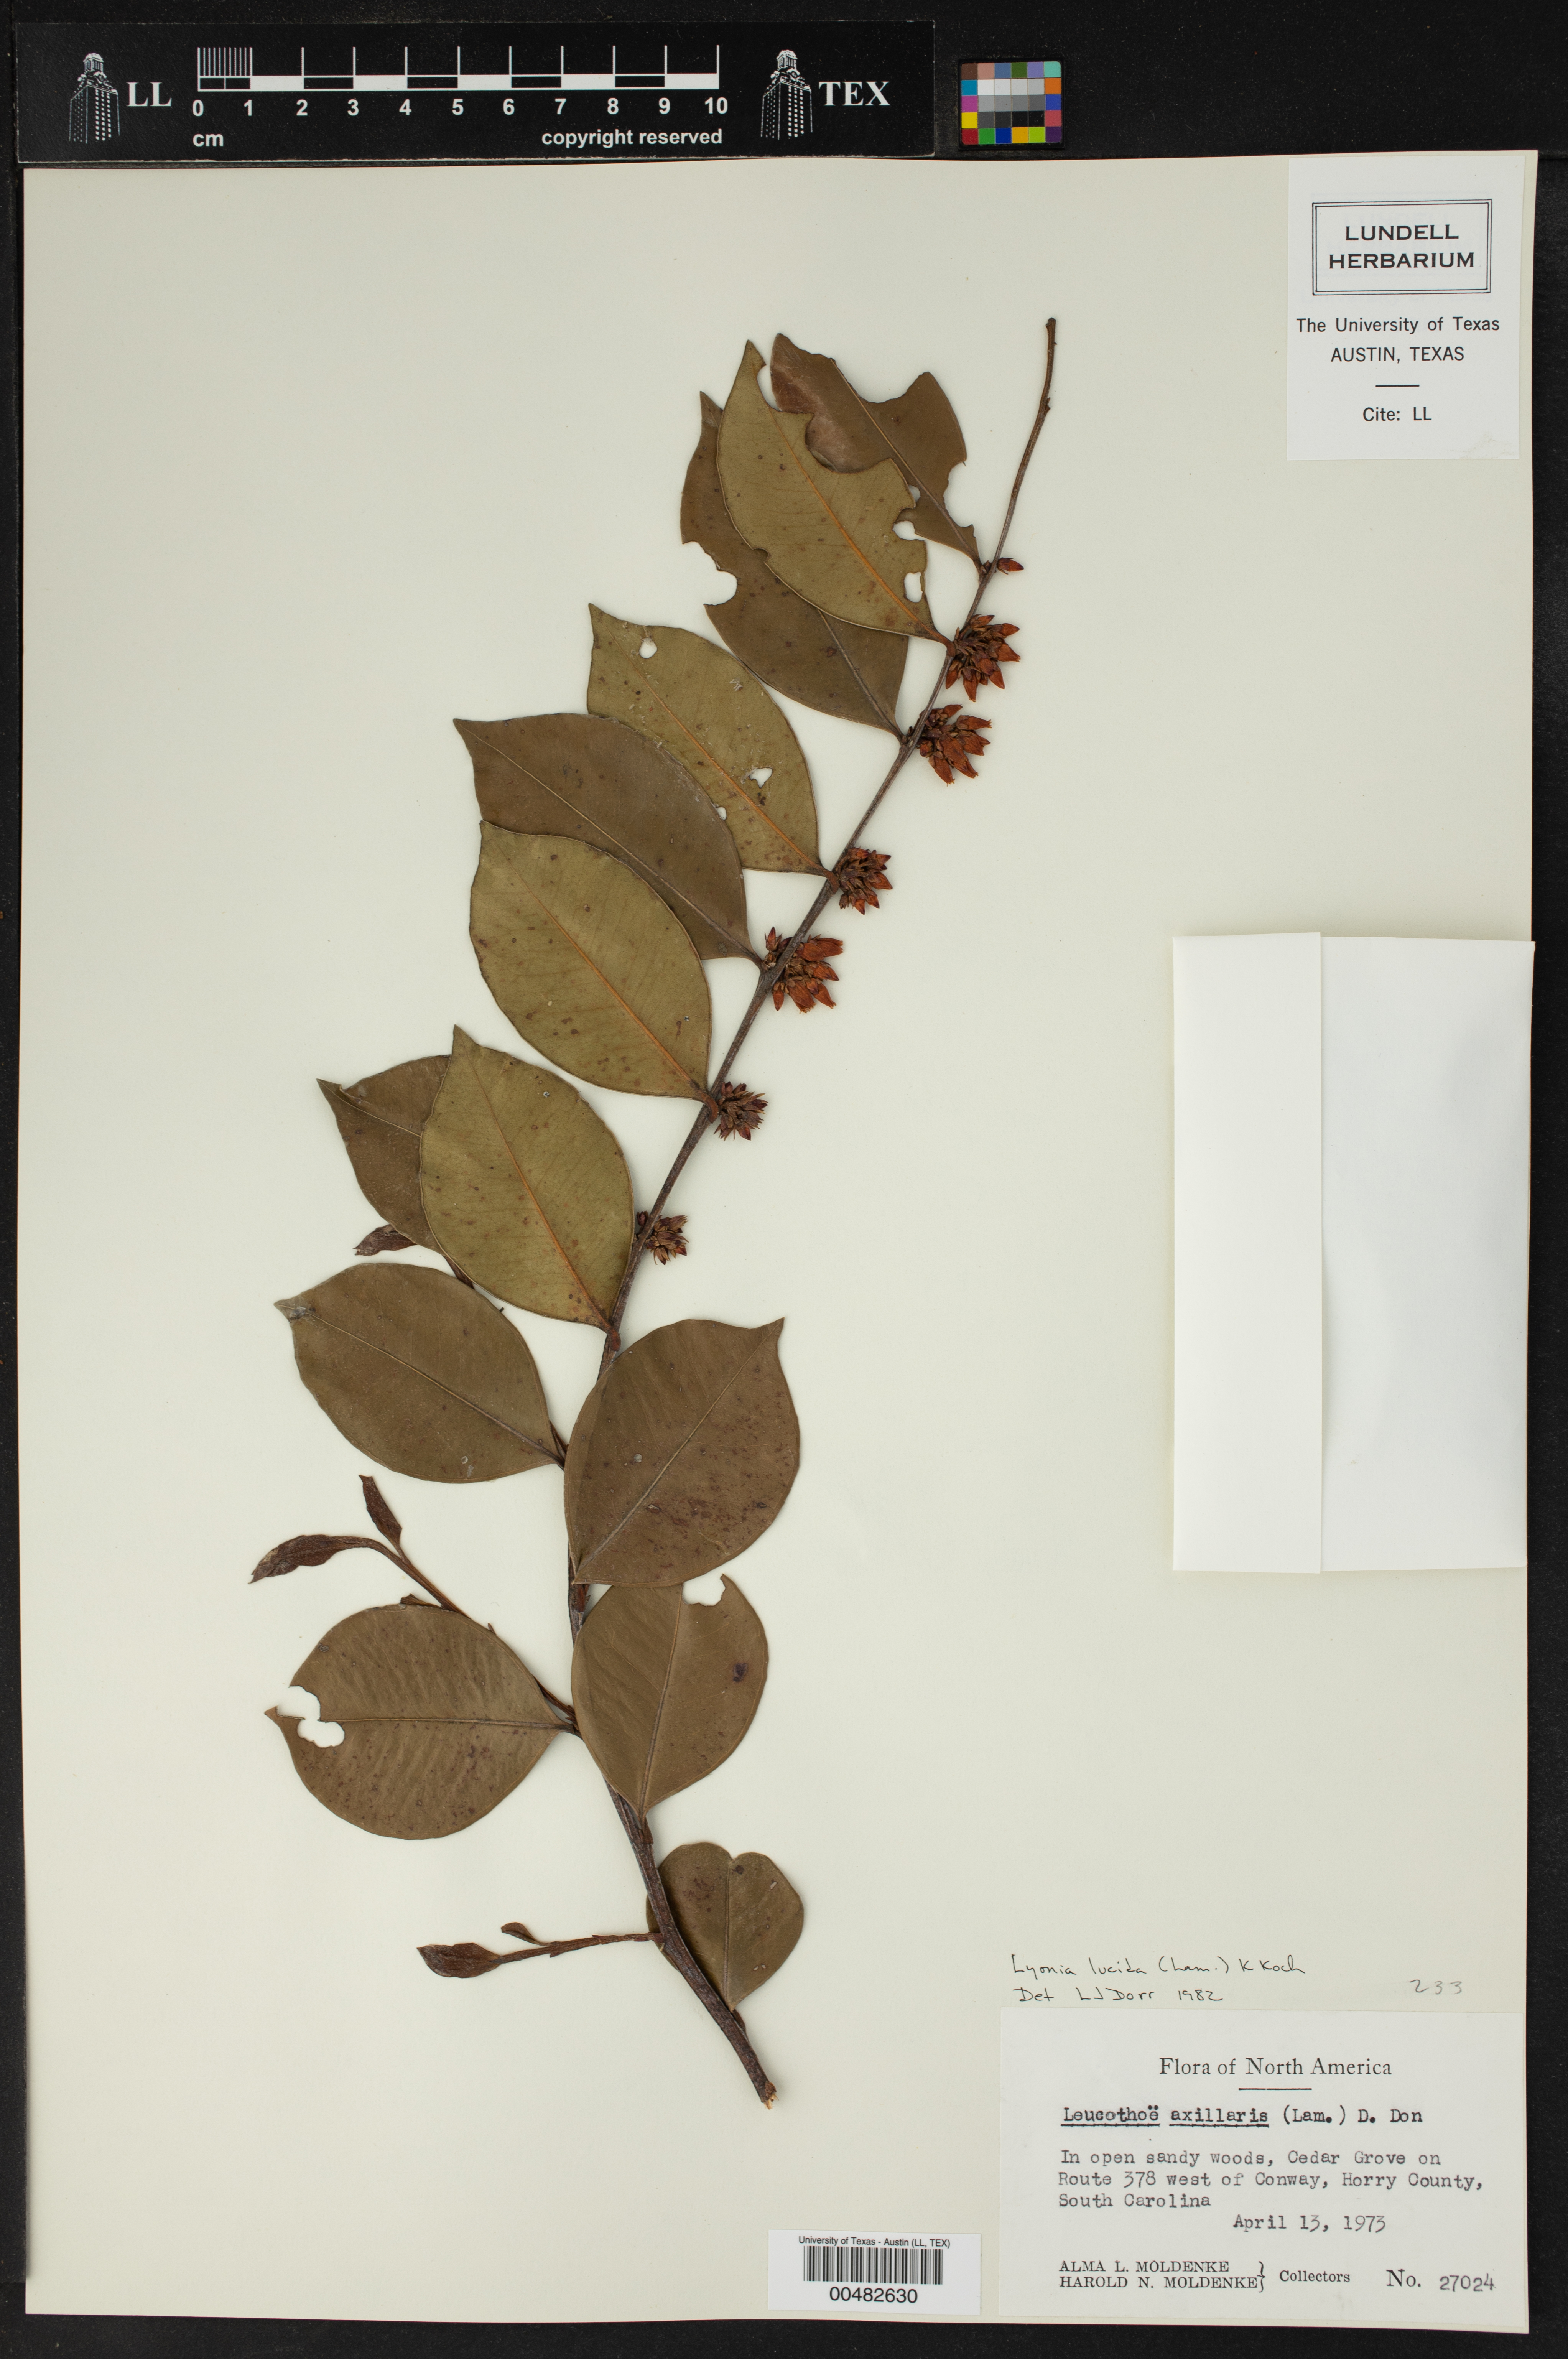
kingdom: Plantae
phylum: Tracheophyta
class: Magnoliopsida
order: Ericales
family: Ericaceae
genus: Lyonia
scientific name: Lyonia lucida
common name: Fetterbush
